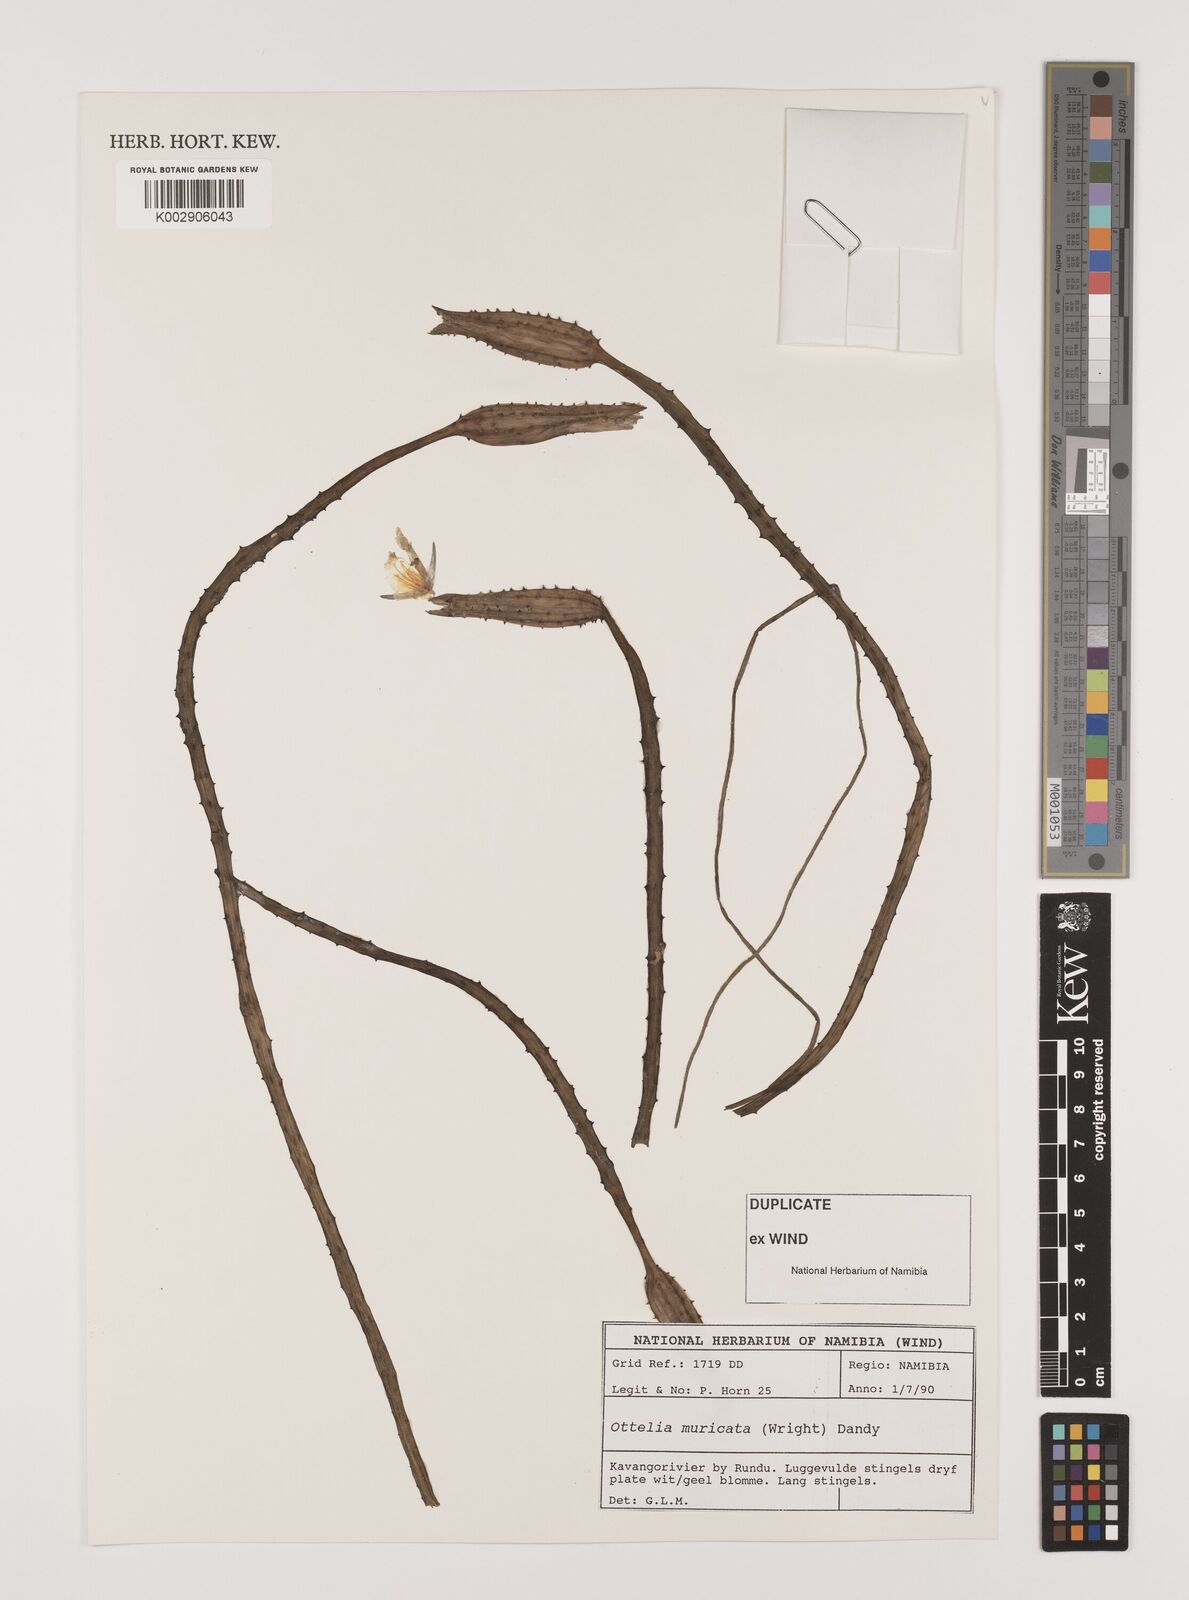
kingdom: Plantae
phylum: Tracheophyta
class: Liliopsida
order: Alismatales
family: Hydrocharitaceae
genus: Ottelia
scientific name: Ottelia muricata
